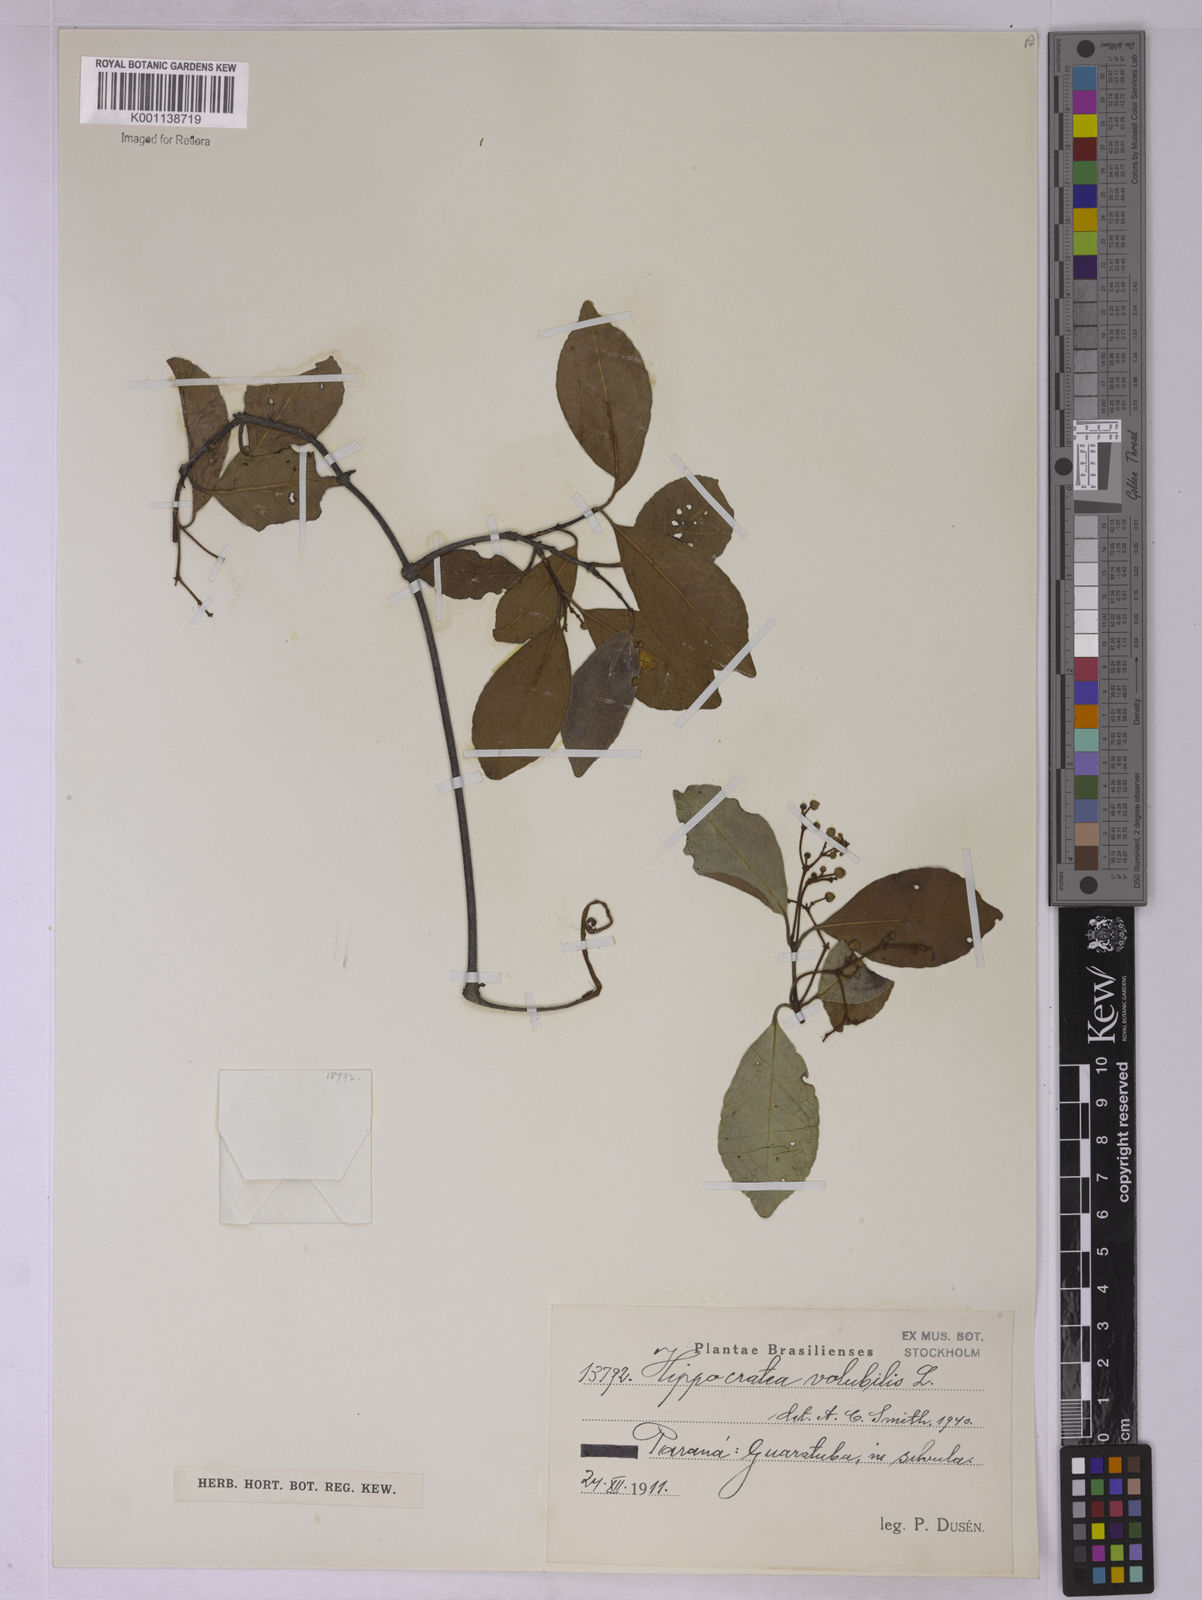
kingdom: Plantae
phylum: Tracheophyta
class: Magnoliopsida
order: Celastrales
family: Celastraceae
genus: Hippocratea
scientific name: Hippocratea volubilis
